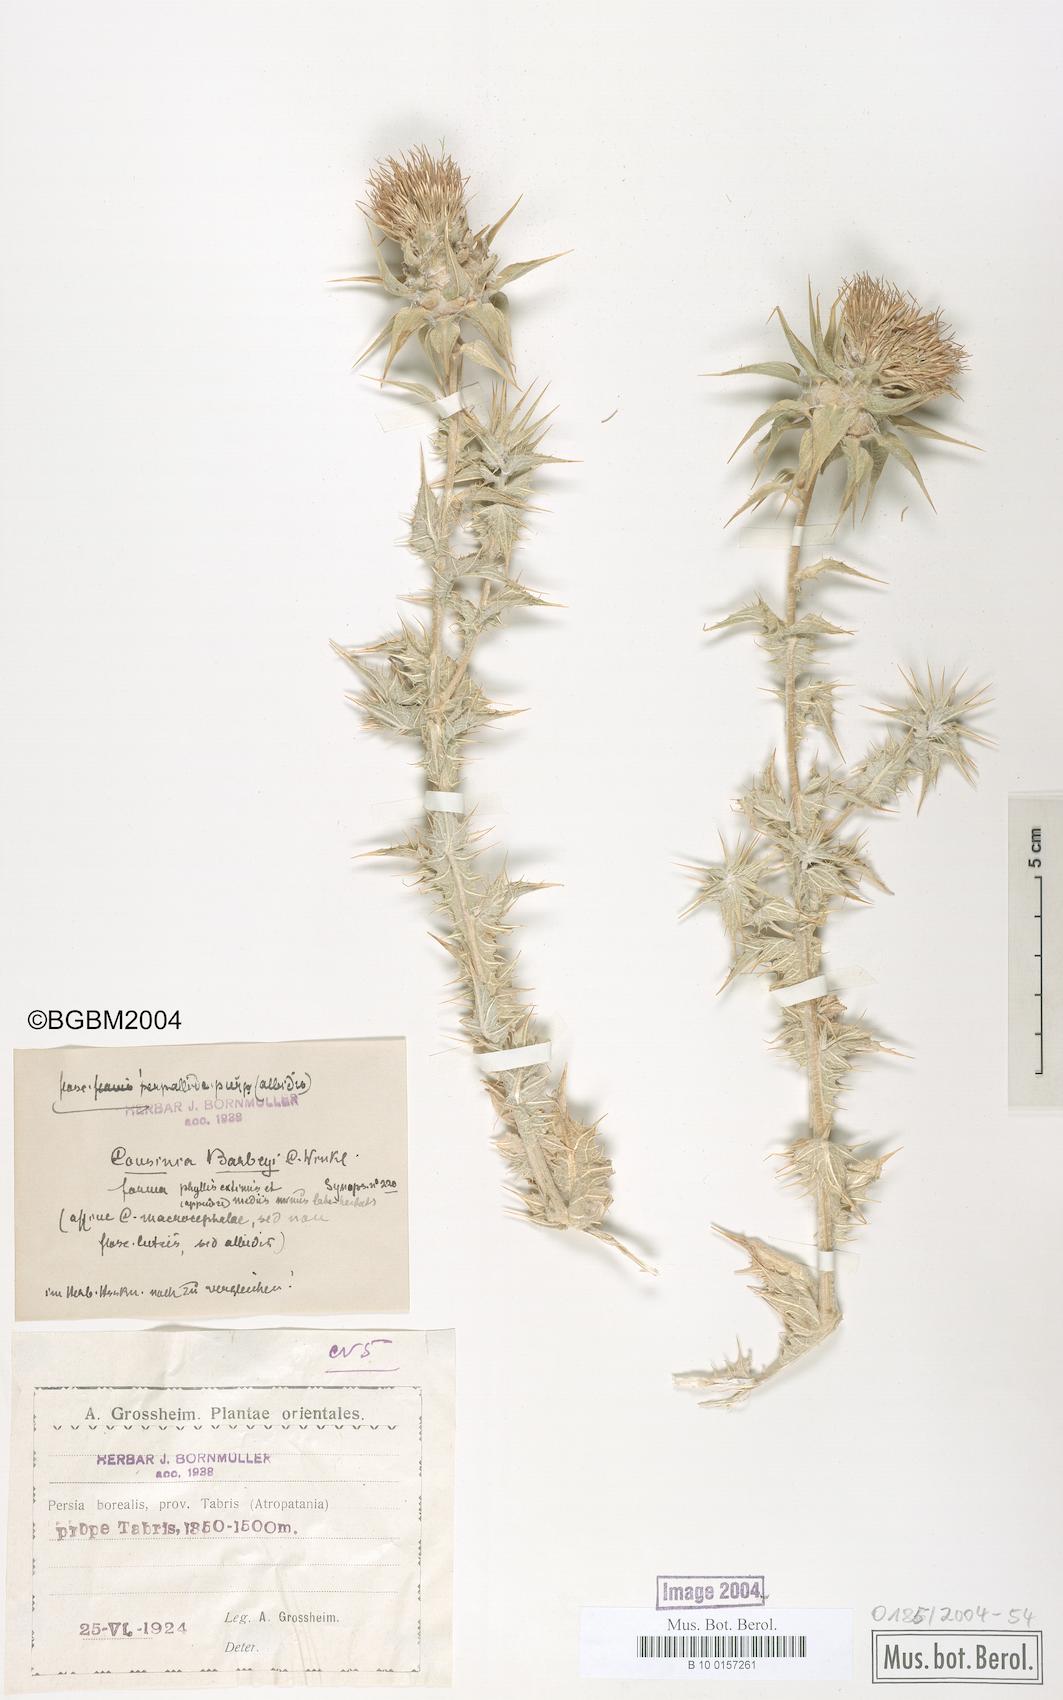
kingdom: Plantae
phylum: Tracheophyta
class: Magnoliopsida
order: Asterales
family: Asteraceae
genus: Cousinia
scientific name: Cousinia barbeyi
